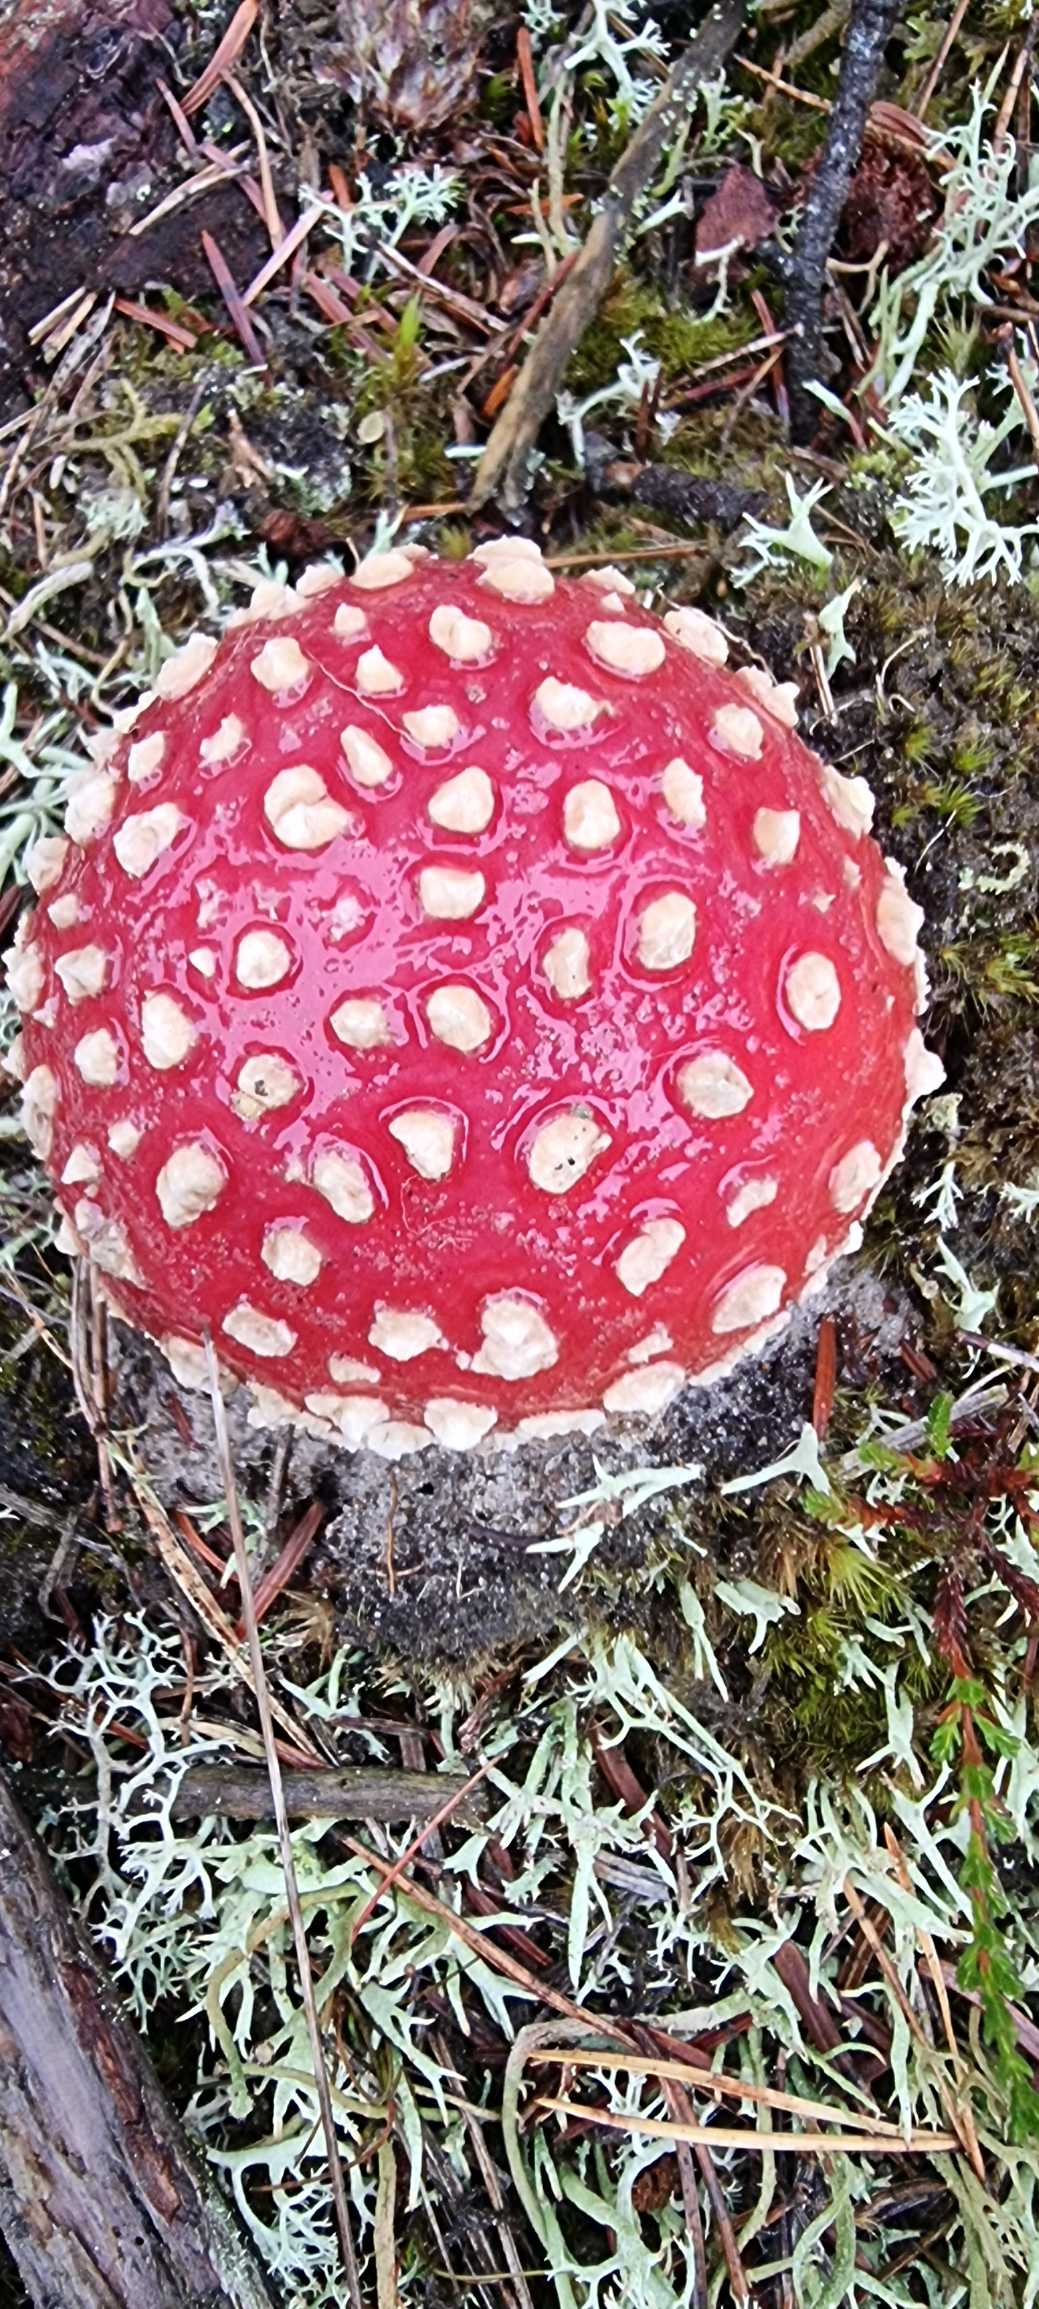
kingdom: Fungi
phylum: Basidiomycota
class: Agaricomycetes
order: Agaricales
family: Amanitaceae
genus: Amanita
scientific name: Amanita muscaria
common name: Rød fluesvamp
